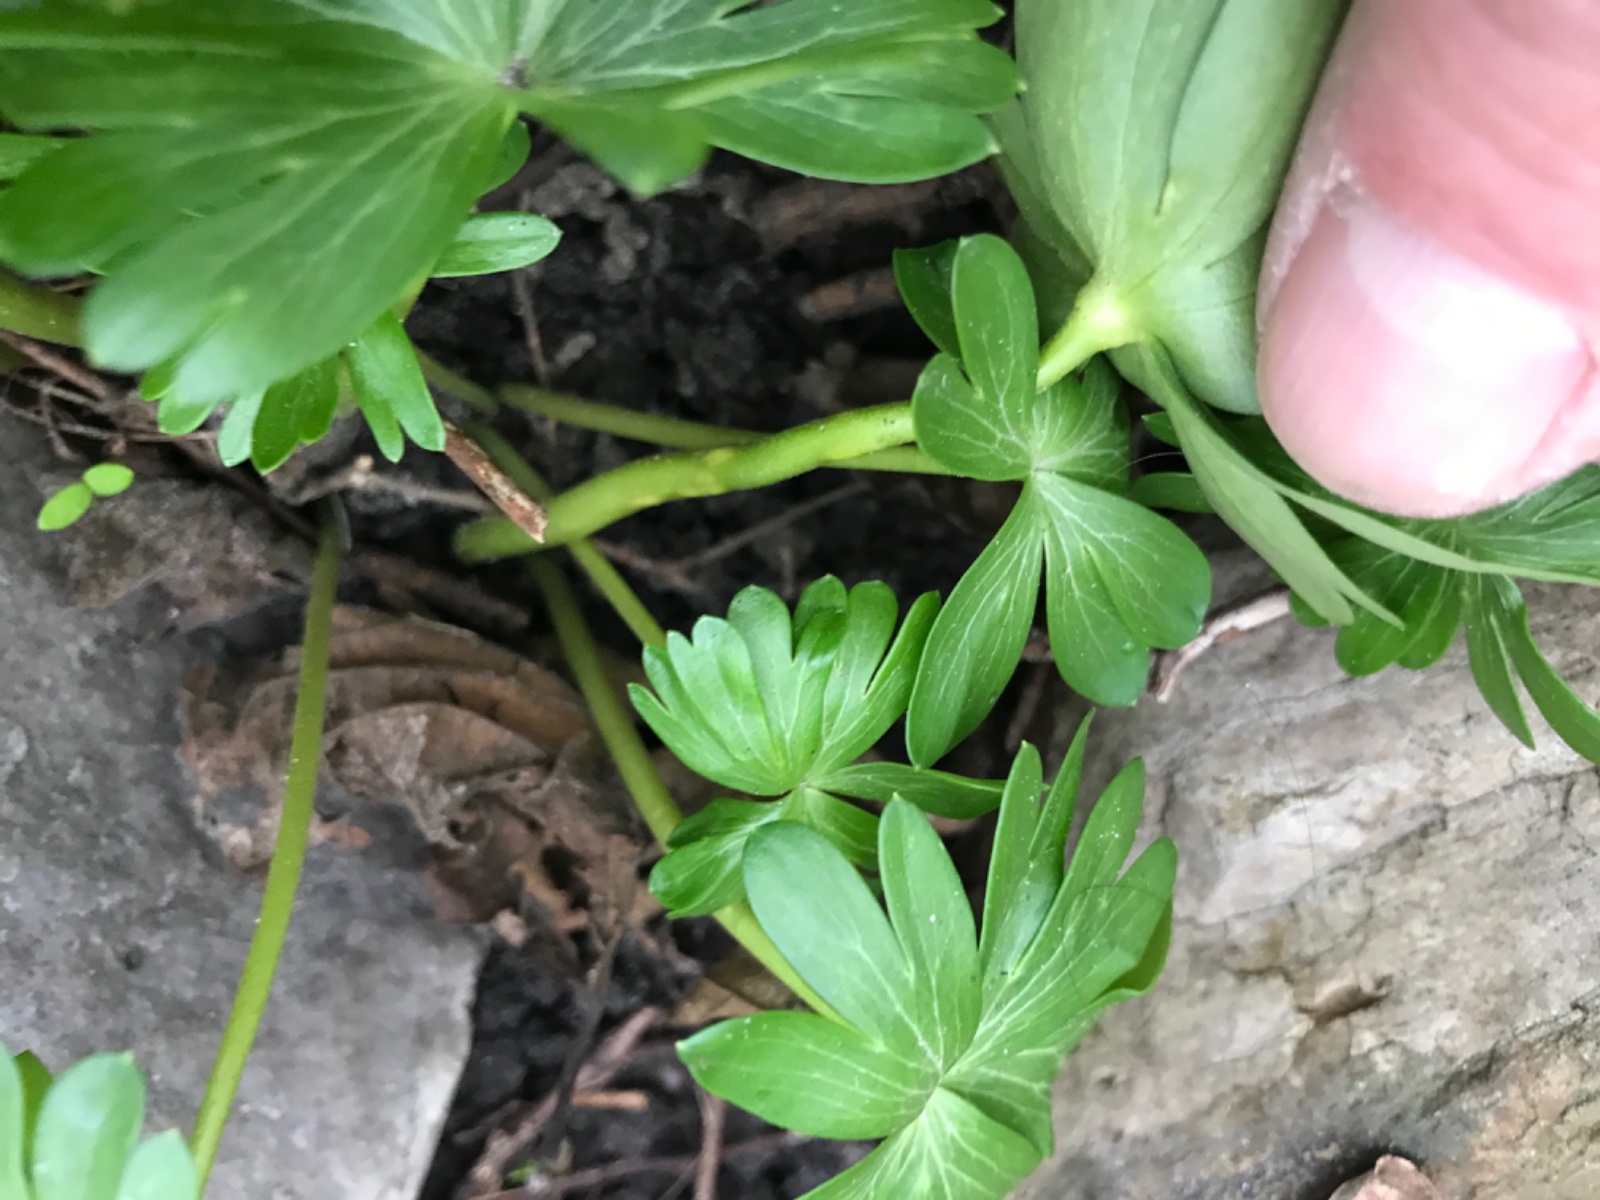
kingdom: Fungi
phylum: Basidiomycota
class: Ustilaginomycetes
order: Urocystidales
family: Urocystidaceae
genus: Urocystis
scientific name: Urocystis eranthidis
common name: erantis-brand
